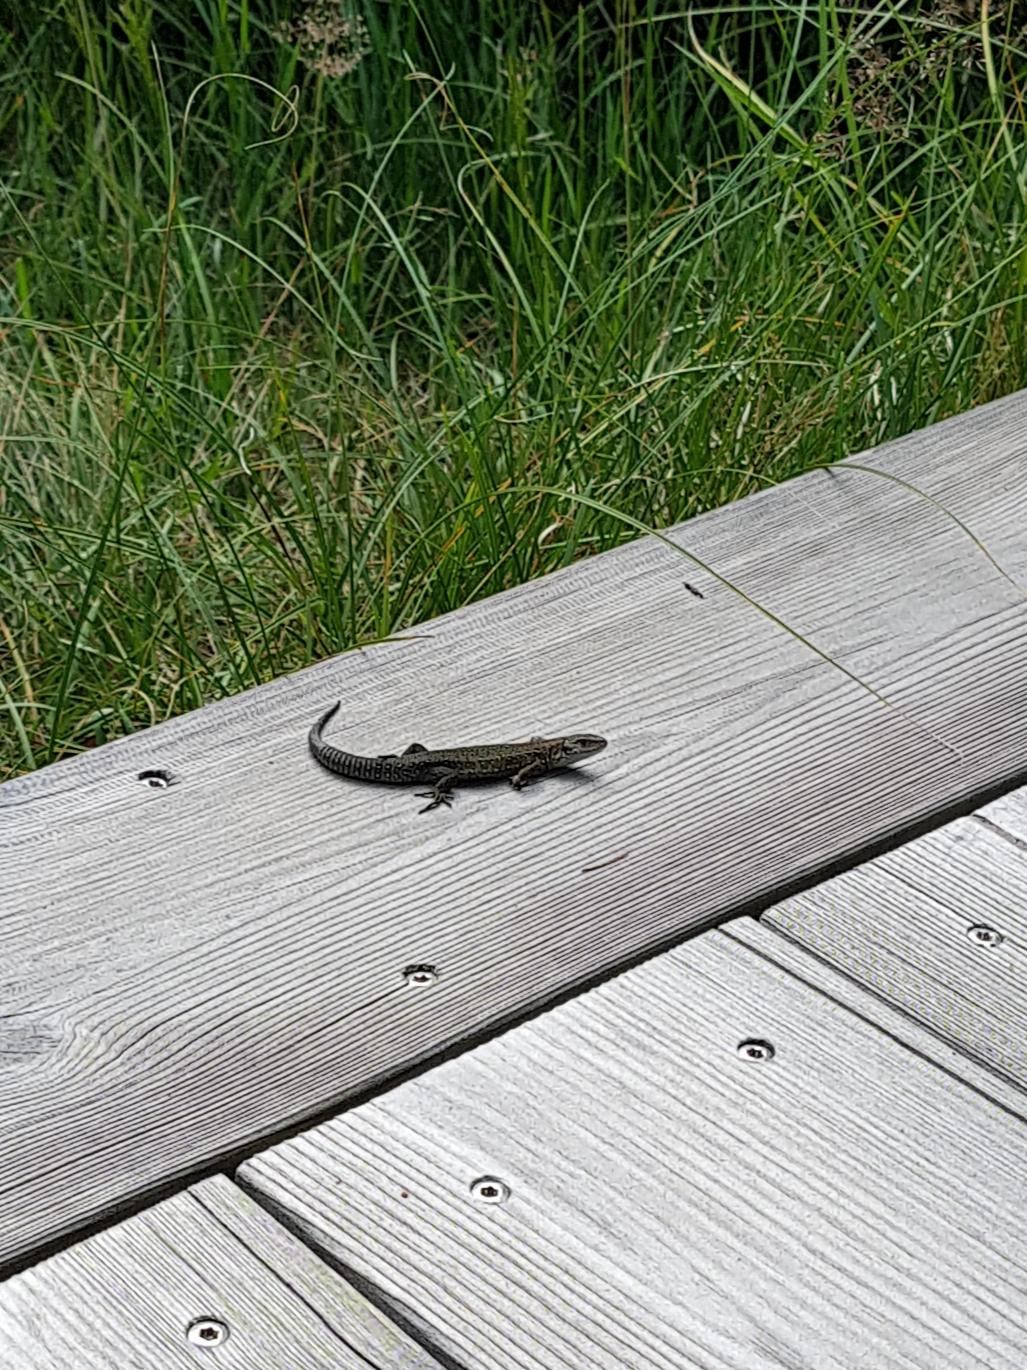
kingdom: Animalia
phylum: Chordata
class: Squamata
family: Lacertidae
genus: Zootoca
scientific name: Zootoca vivipara
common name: Skovfirben
